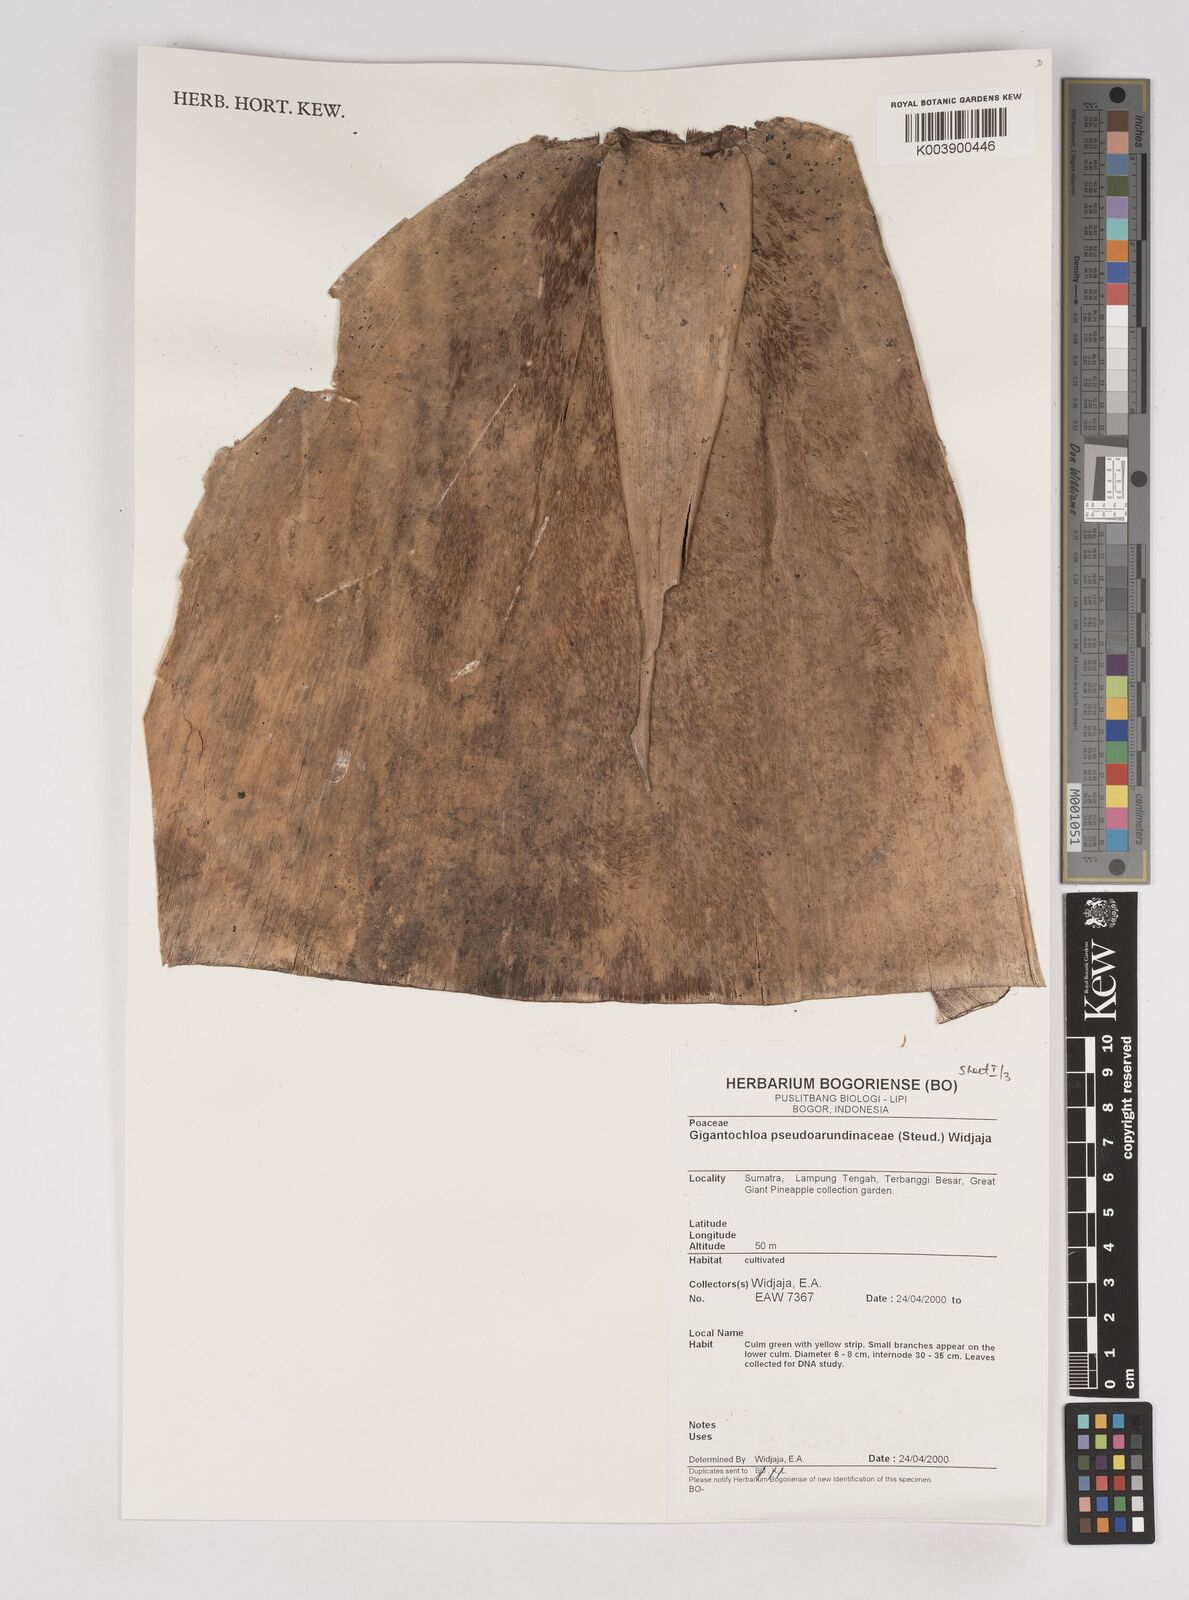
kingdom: Plantae
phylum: Tracheophyta
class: Liliopsida
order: Poales
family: Poaceae
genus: Gigantochloa
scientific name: Gigantochloa verticillata
